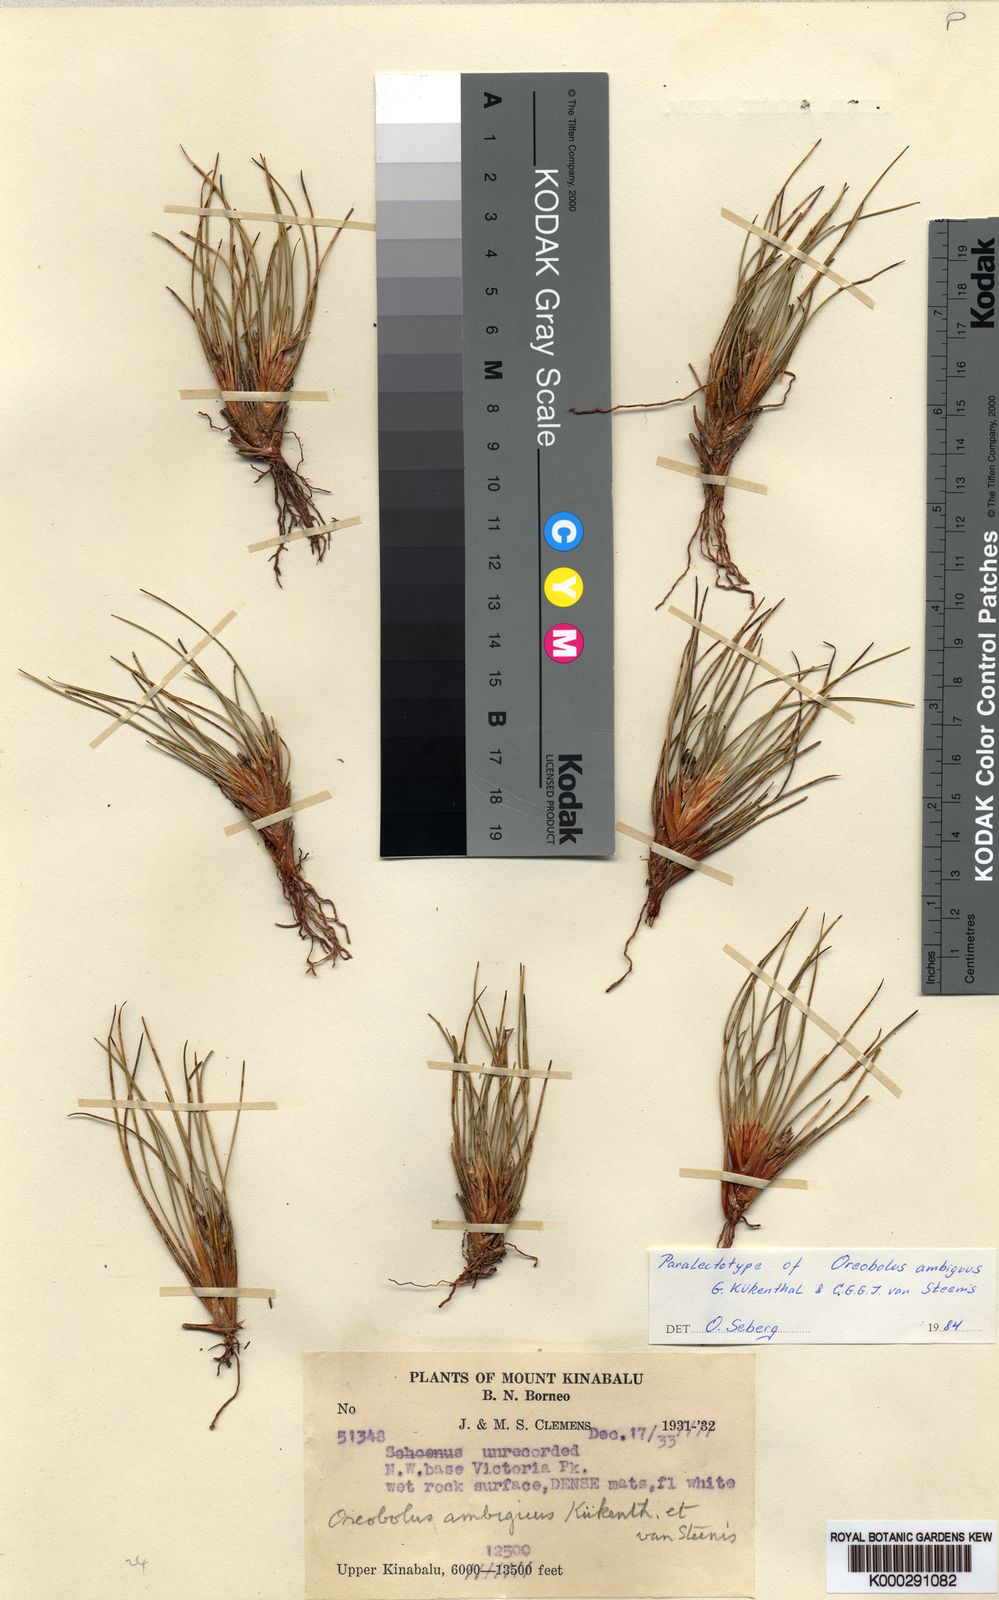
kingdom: Plantae
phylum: Tracheophyta
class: Liliopsida
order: Poales
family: Cyperaceae
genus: Oreobolus
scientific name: Oreobolus
